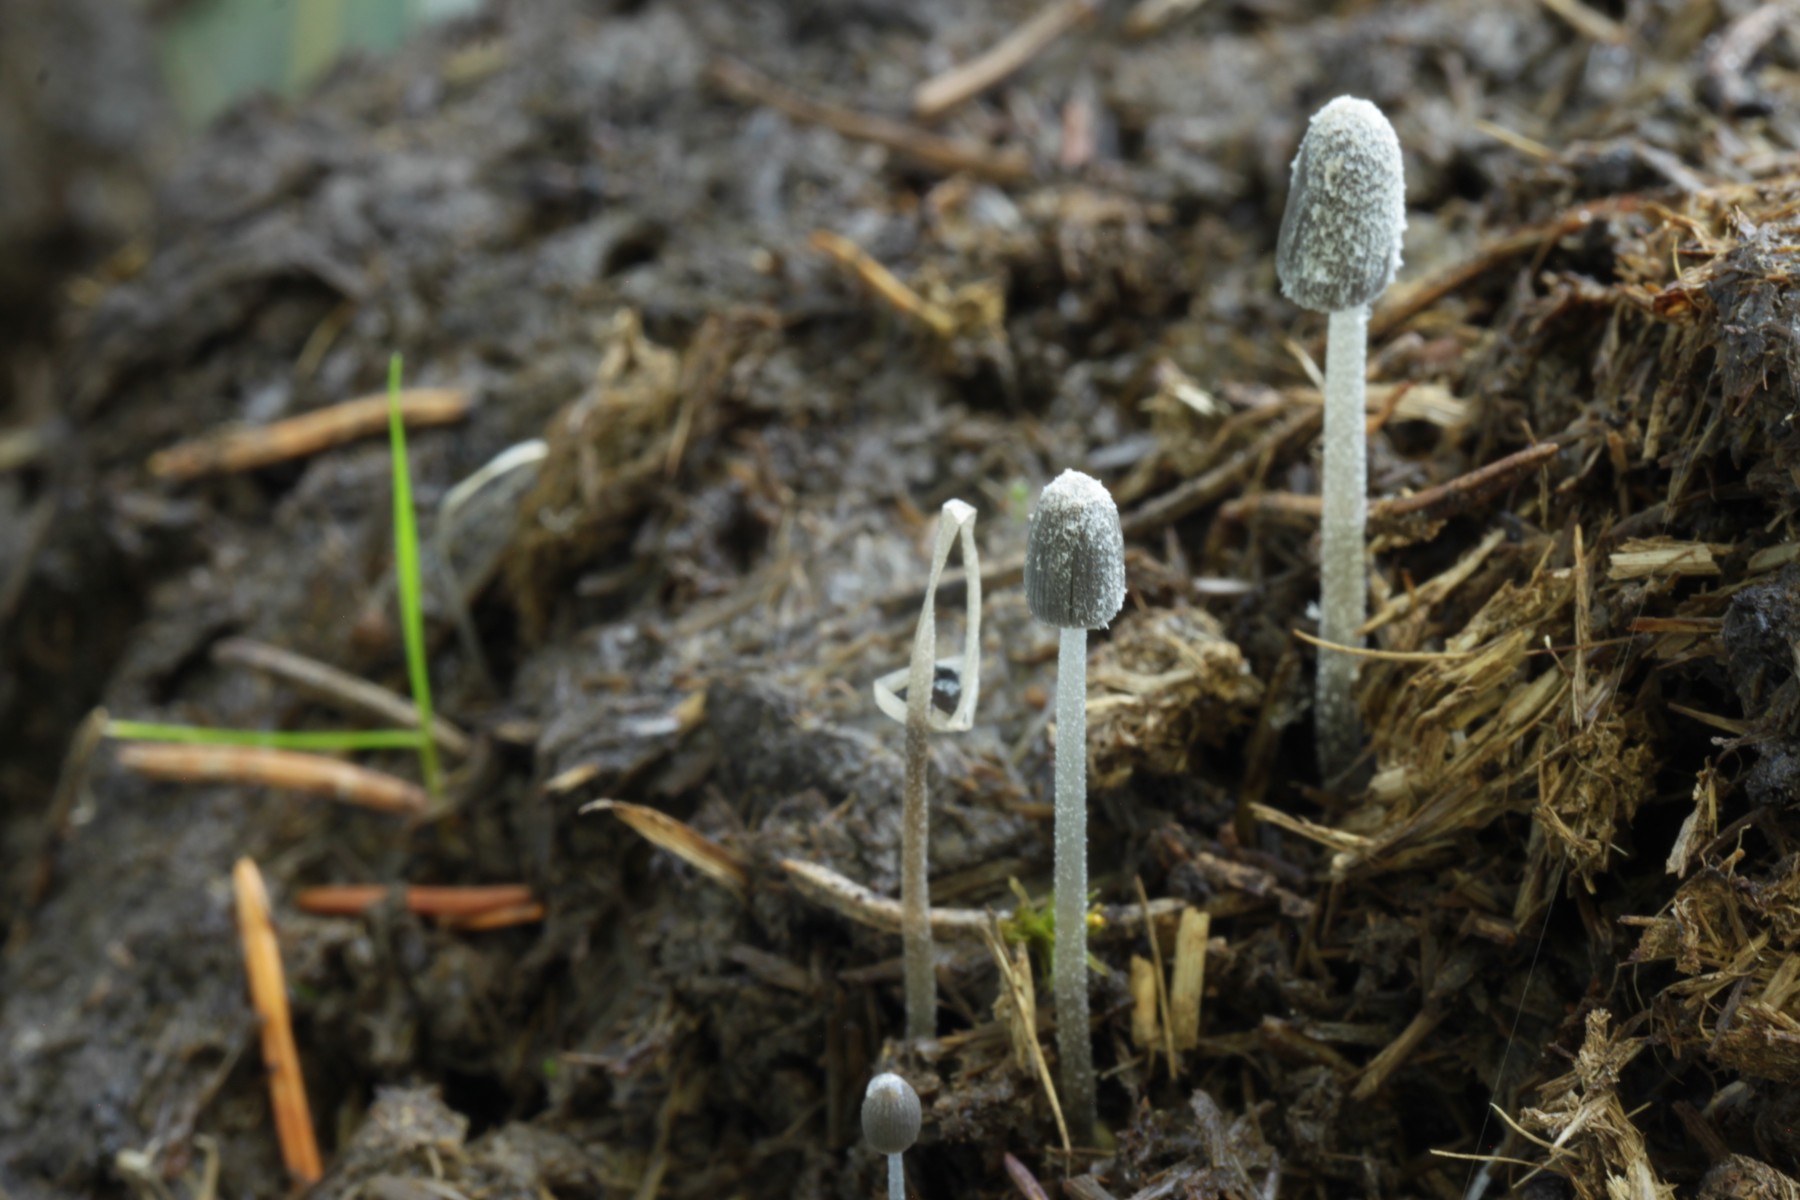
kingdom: Fungi
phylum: Basidiomycota
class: Agaricomycetes
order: Agaricales
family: Psathyrellaceae
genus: Coprinopsis
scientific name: Coprinopsis pseudoradiata
